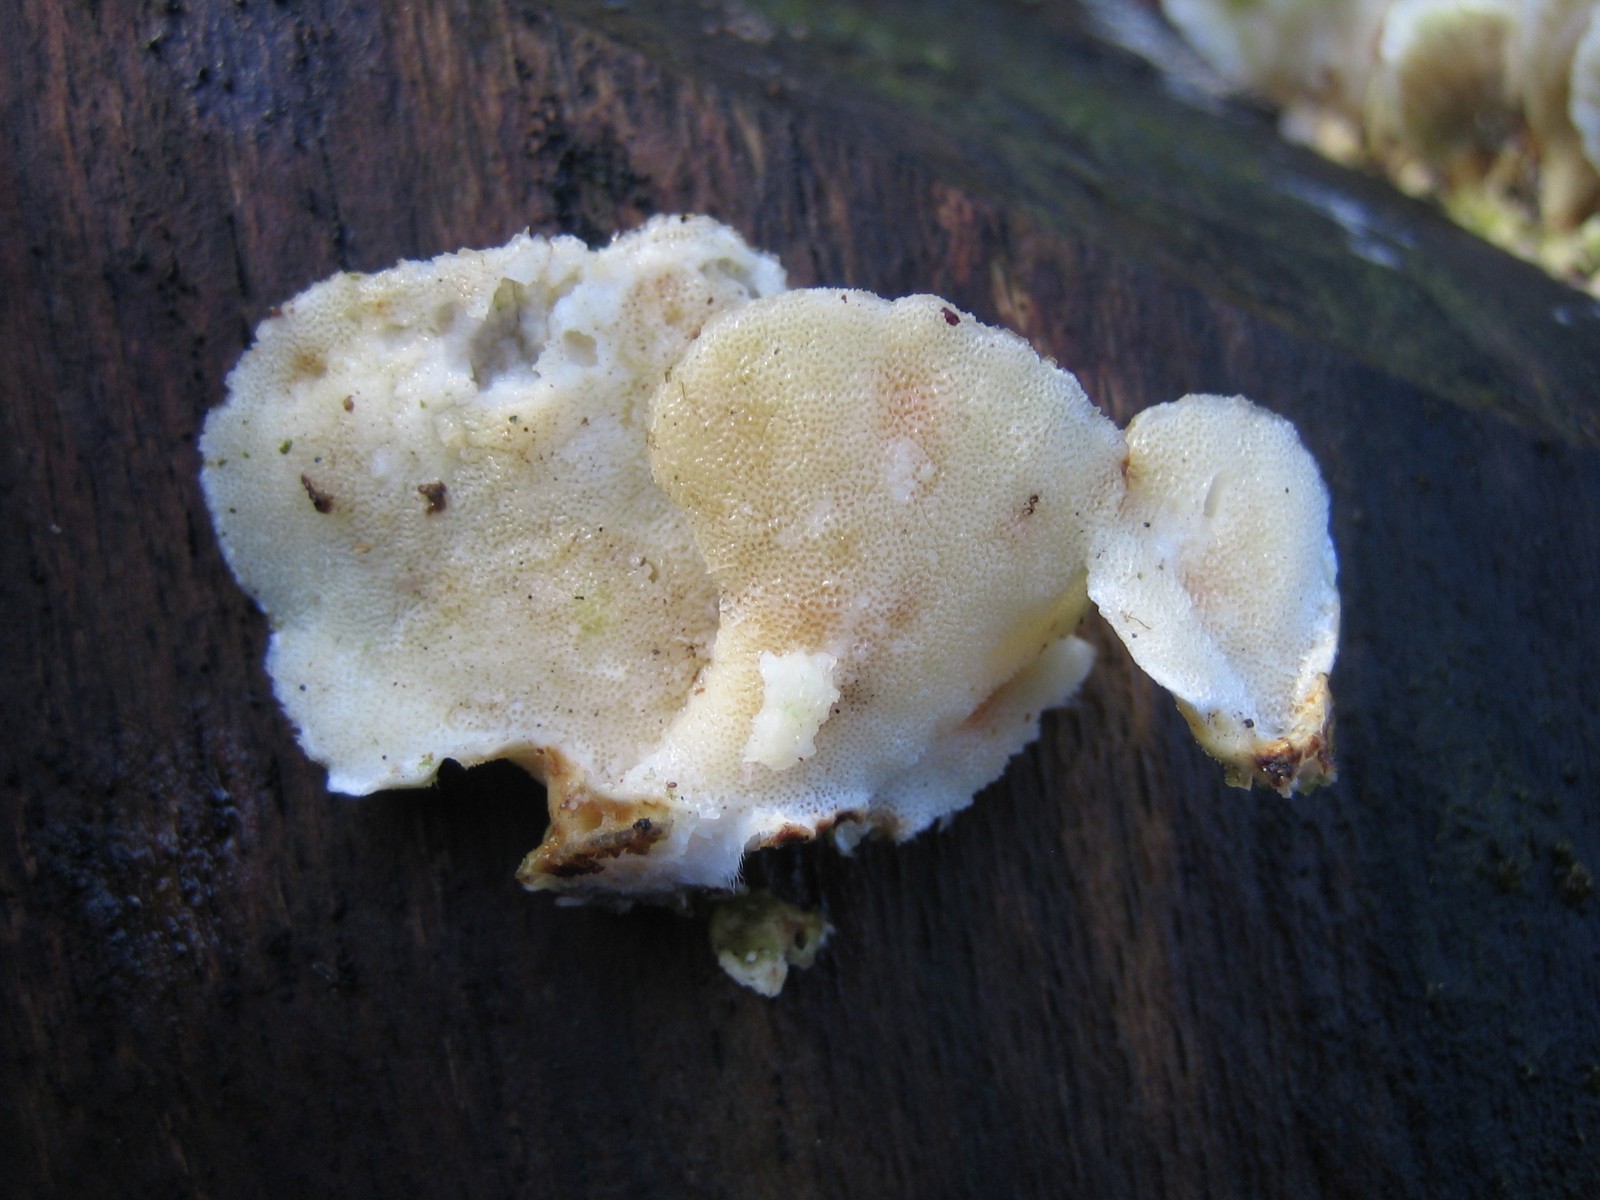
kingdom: Fungi
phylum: Basidiomycota
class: Agaricomycetes
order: Polyporales
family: Polyporaceae
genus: Trametes
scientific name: Trametes hirsuta
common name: håret læderporesvamp
